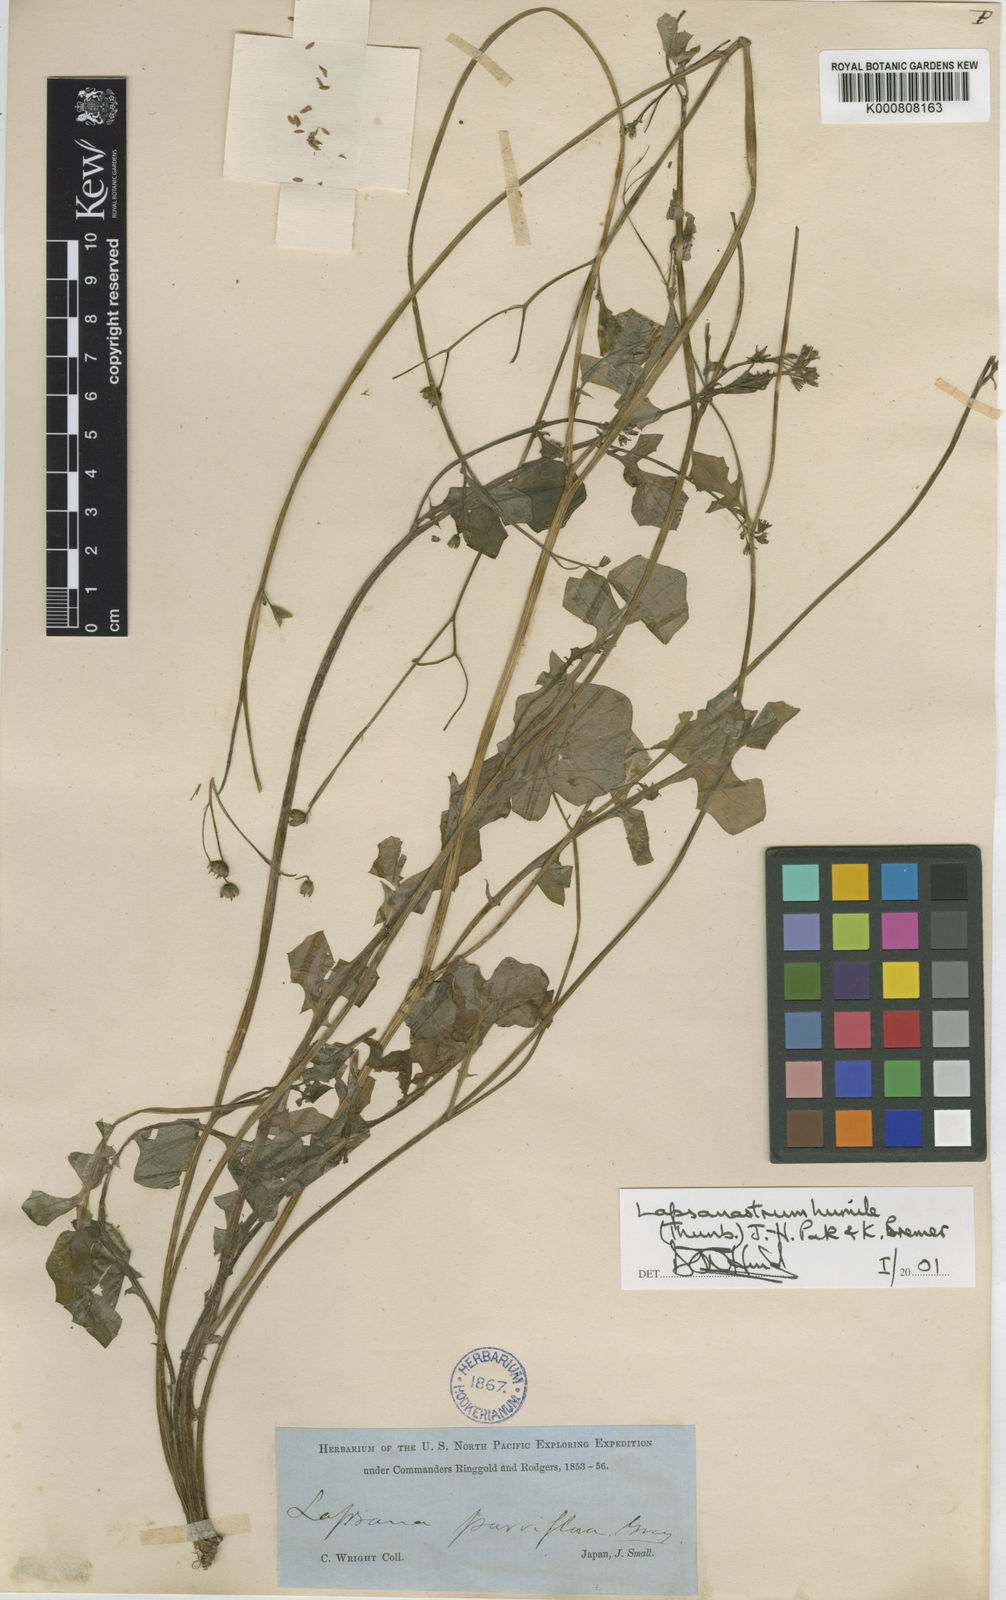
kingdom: Plantae
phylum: Tracheophyta
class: Magnoliopsida
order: Asterales
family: Asteraceae
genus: Lapsanastrum
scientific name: Lapsanastrum humile
